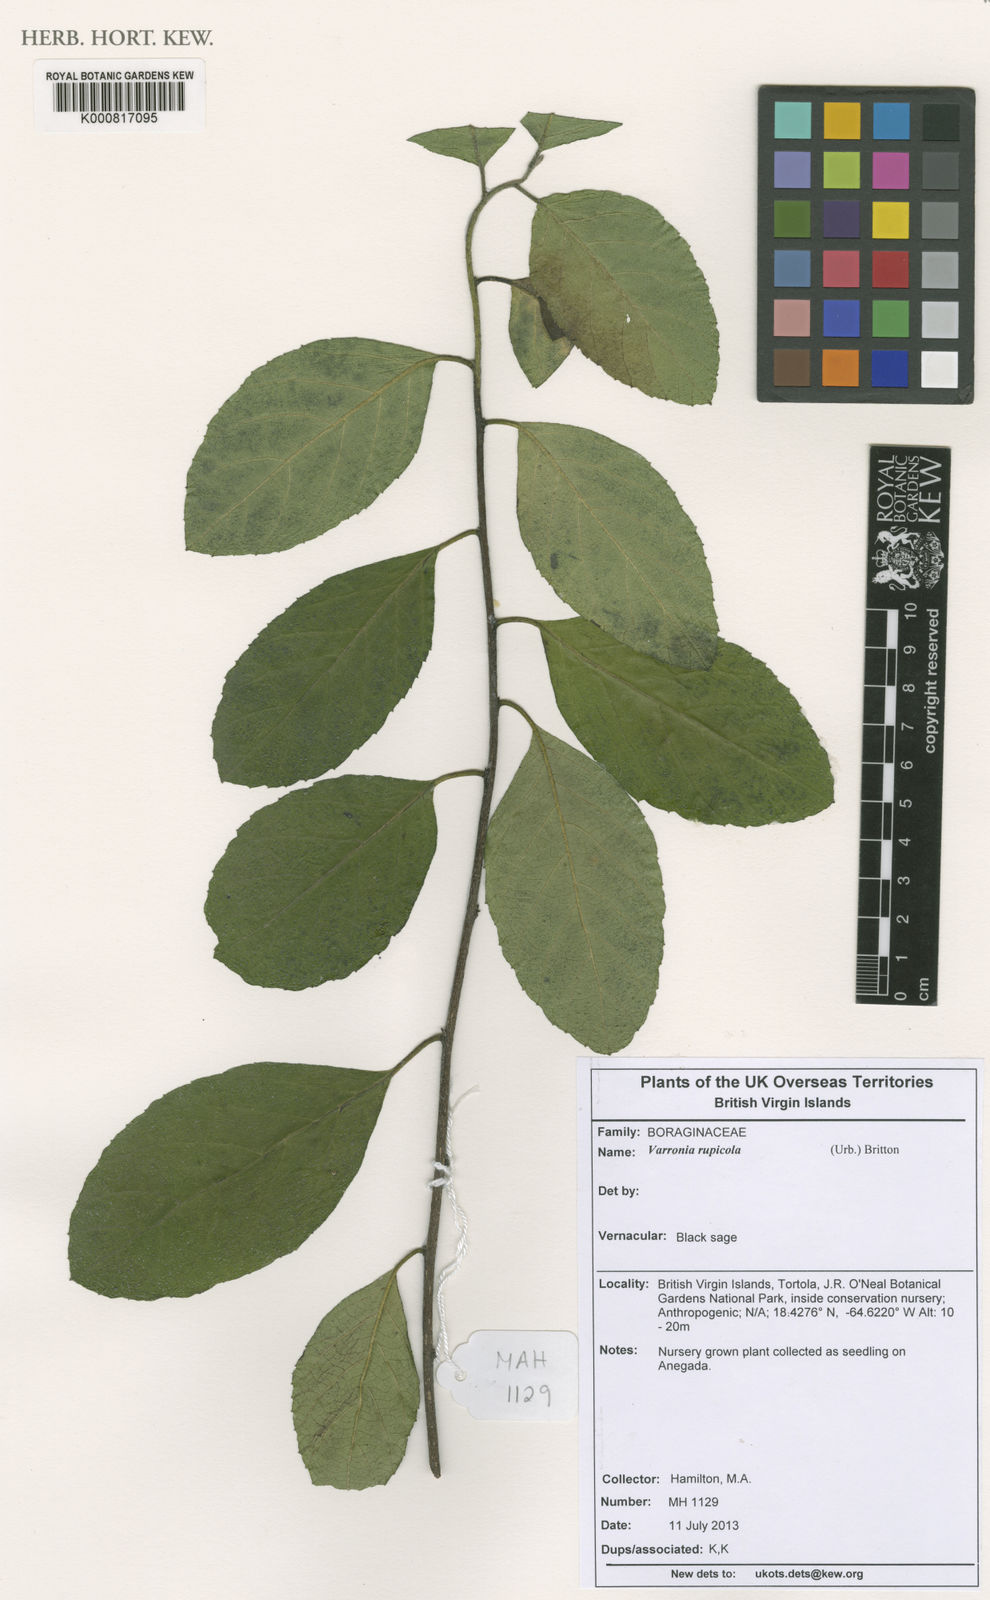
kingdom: Plantae
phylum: Tracheophyta
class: Magnoliopsida
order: Boraginales
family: Cordiaceae
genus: Varronia
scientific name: Varronia rupicola
